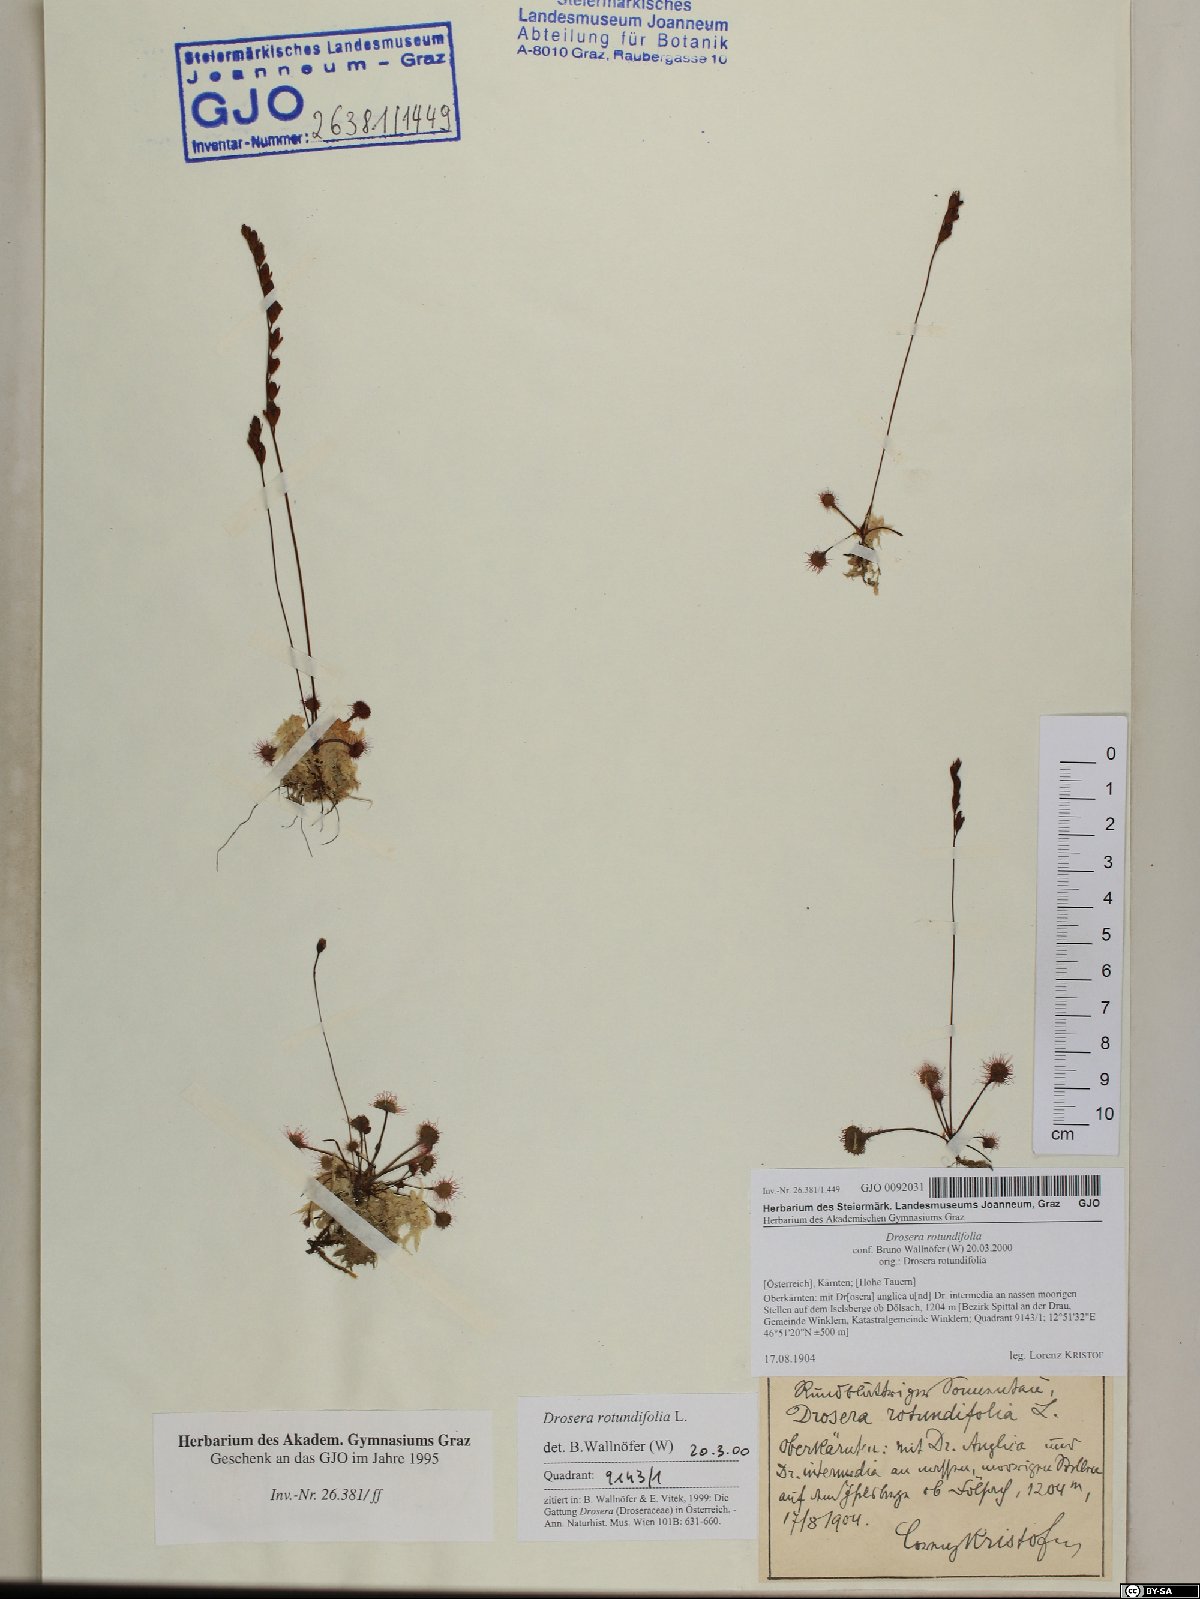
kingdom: Plantae
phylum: Tracheophyta
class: Magnoliopsida
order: Caryophyllales
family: Droseraceae
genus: Drosera
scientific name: Drosera rotundifolia
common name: Round-leaved sundew
